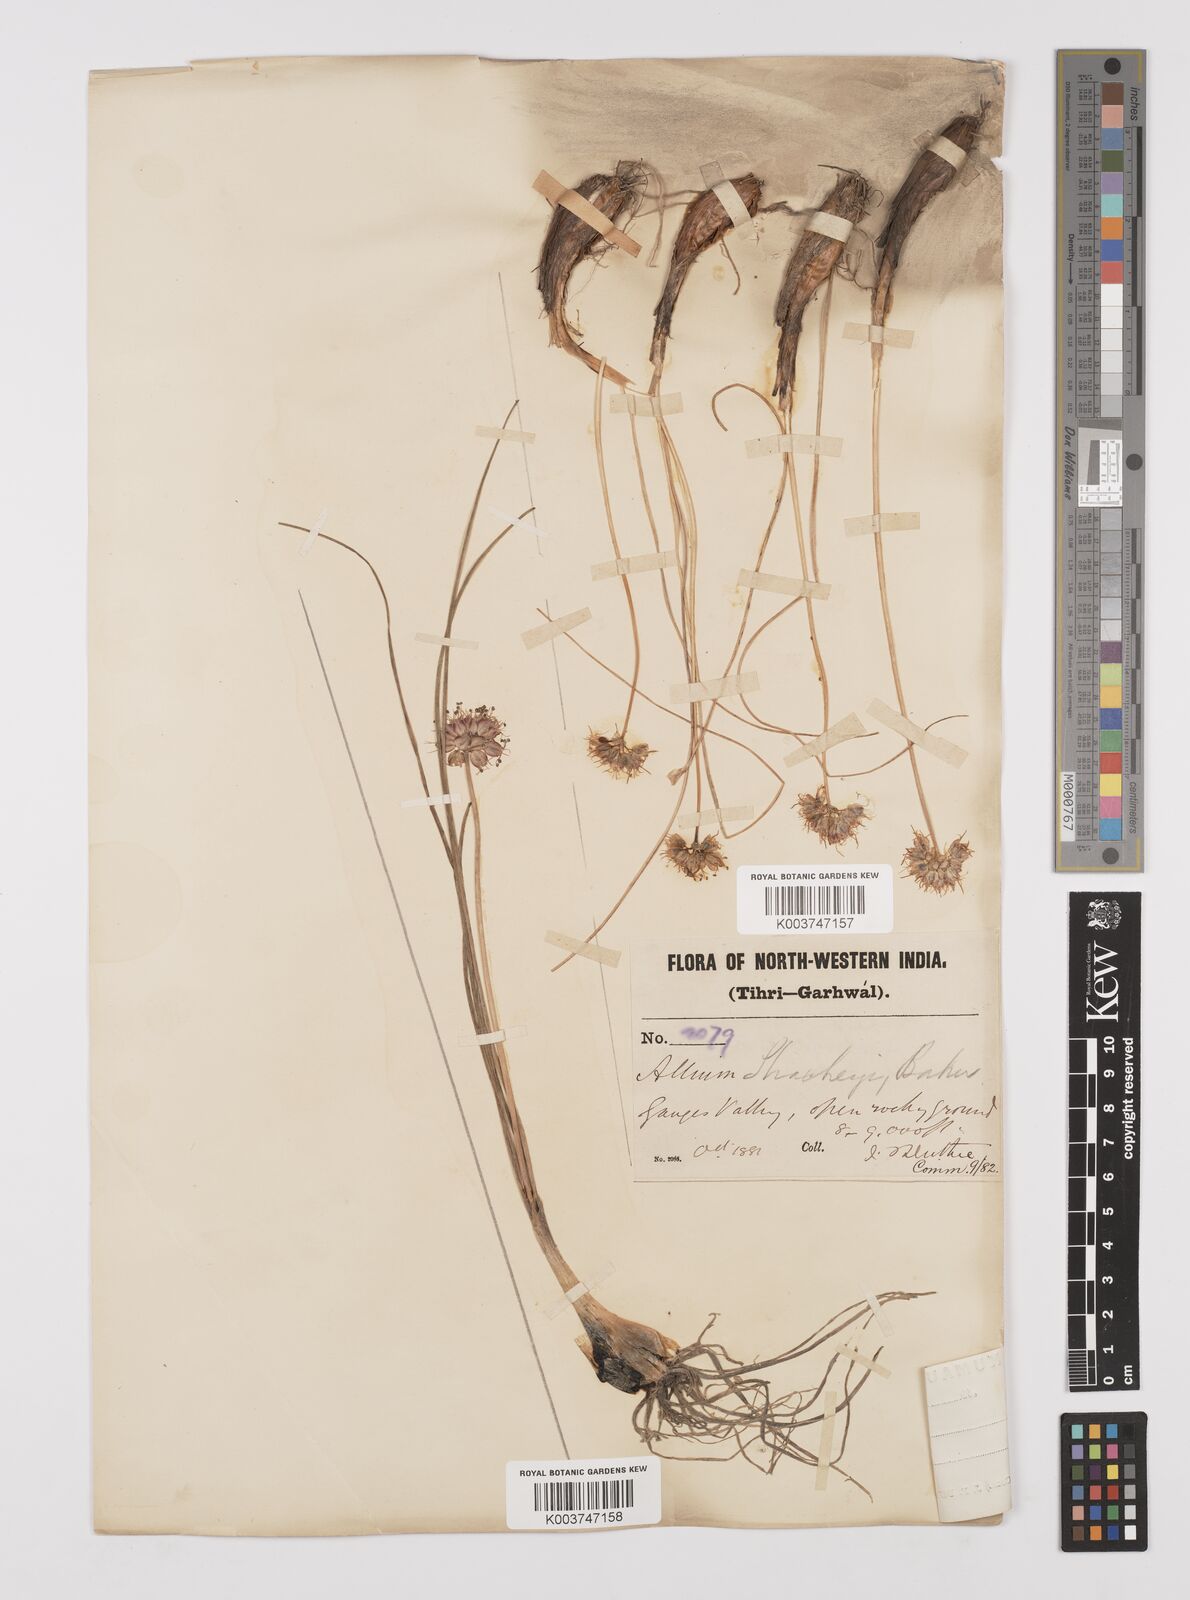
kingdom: Plantae
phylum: Tracheophyta
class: Liliopsida
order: Asparagales
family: Amaryllidaceae
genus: Allium
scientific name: Allium stracheyi
